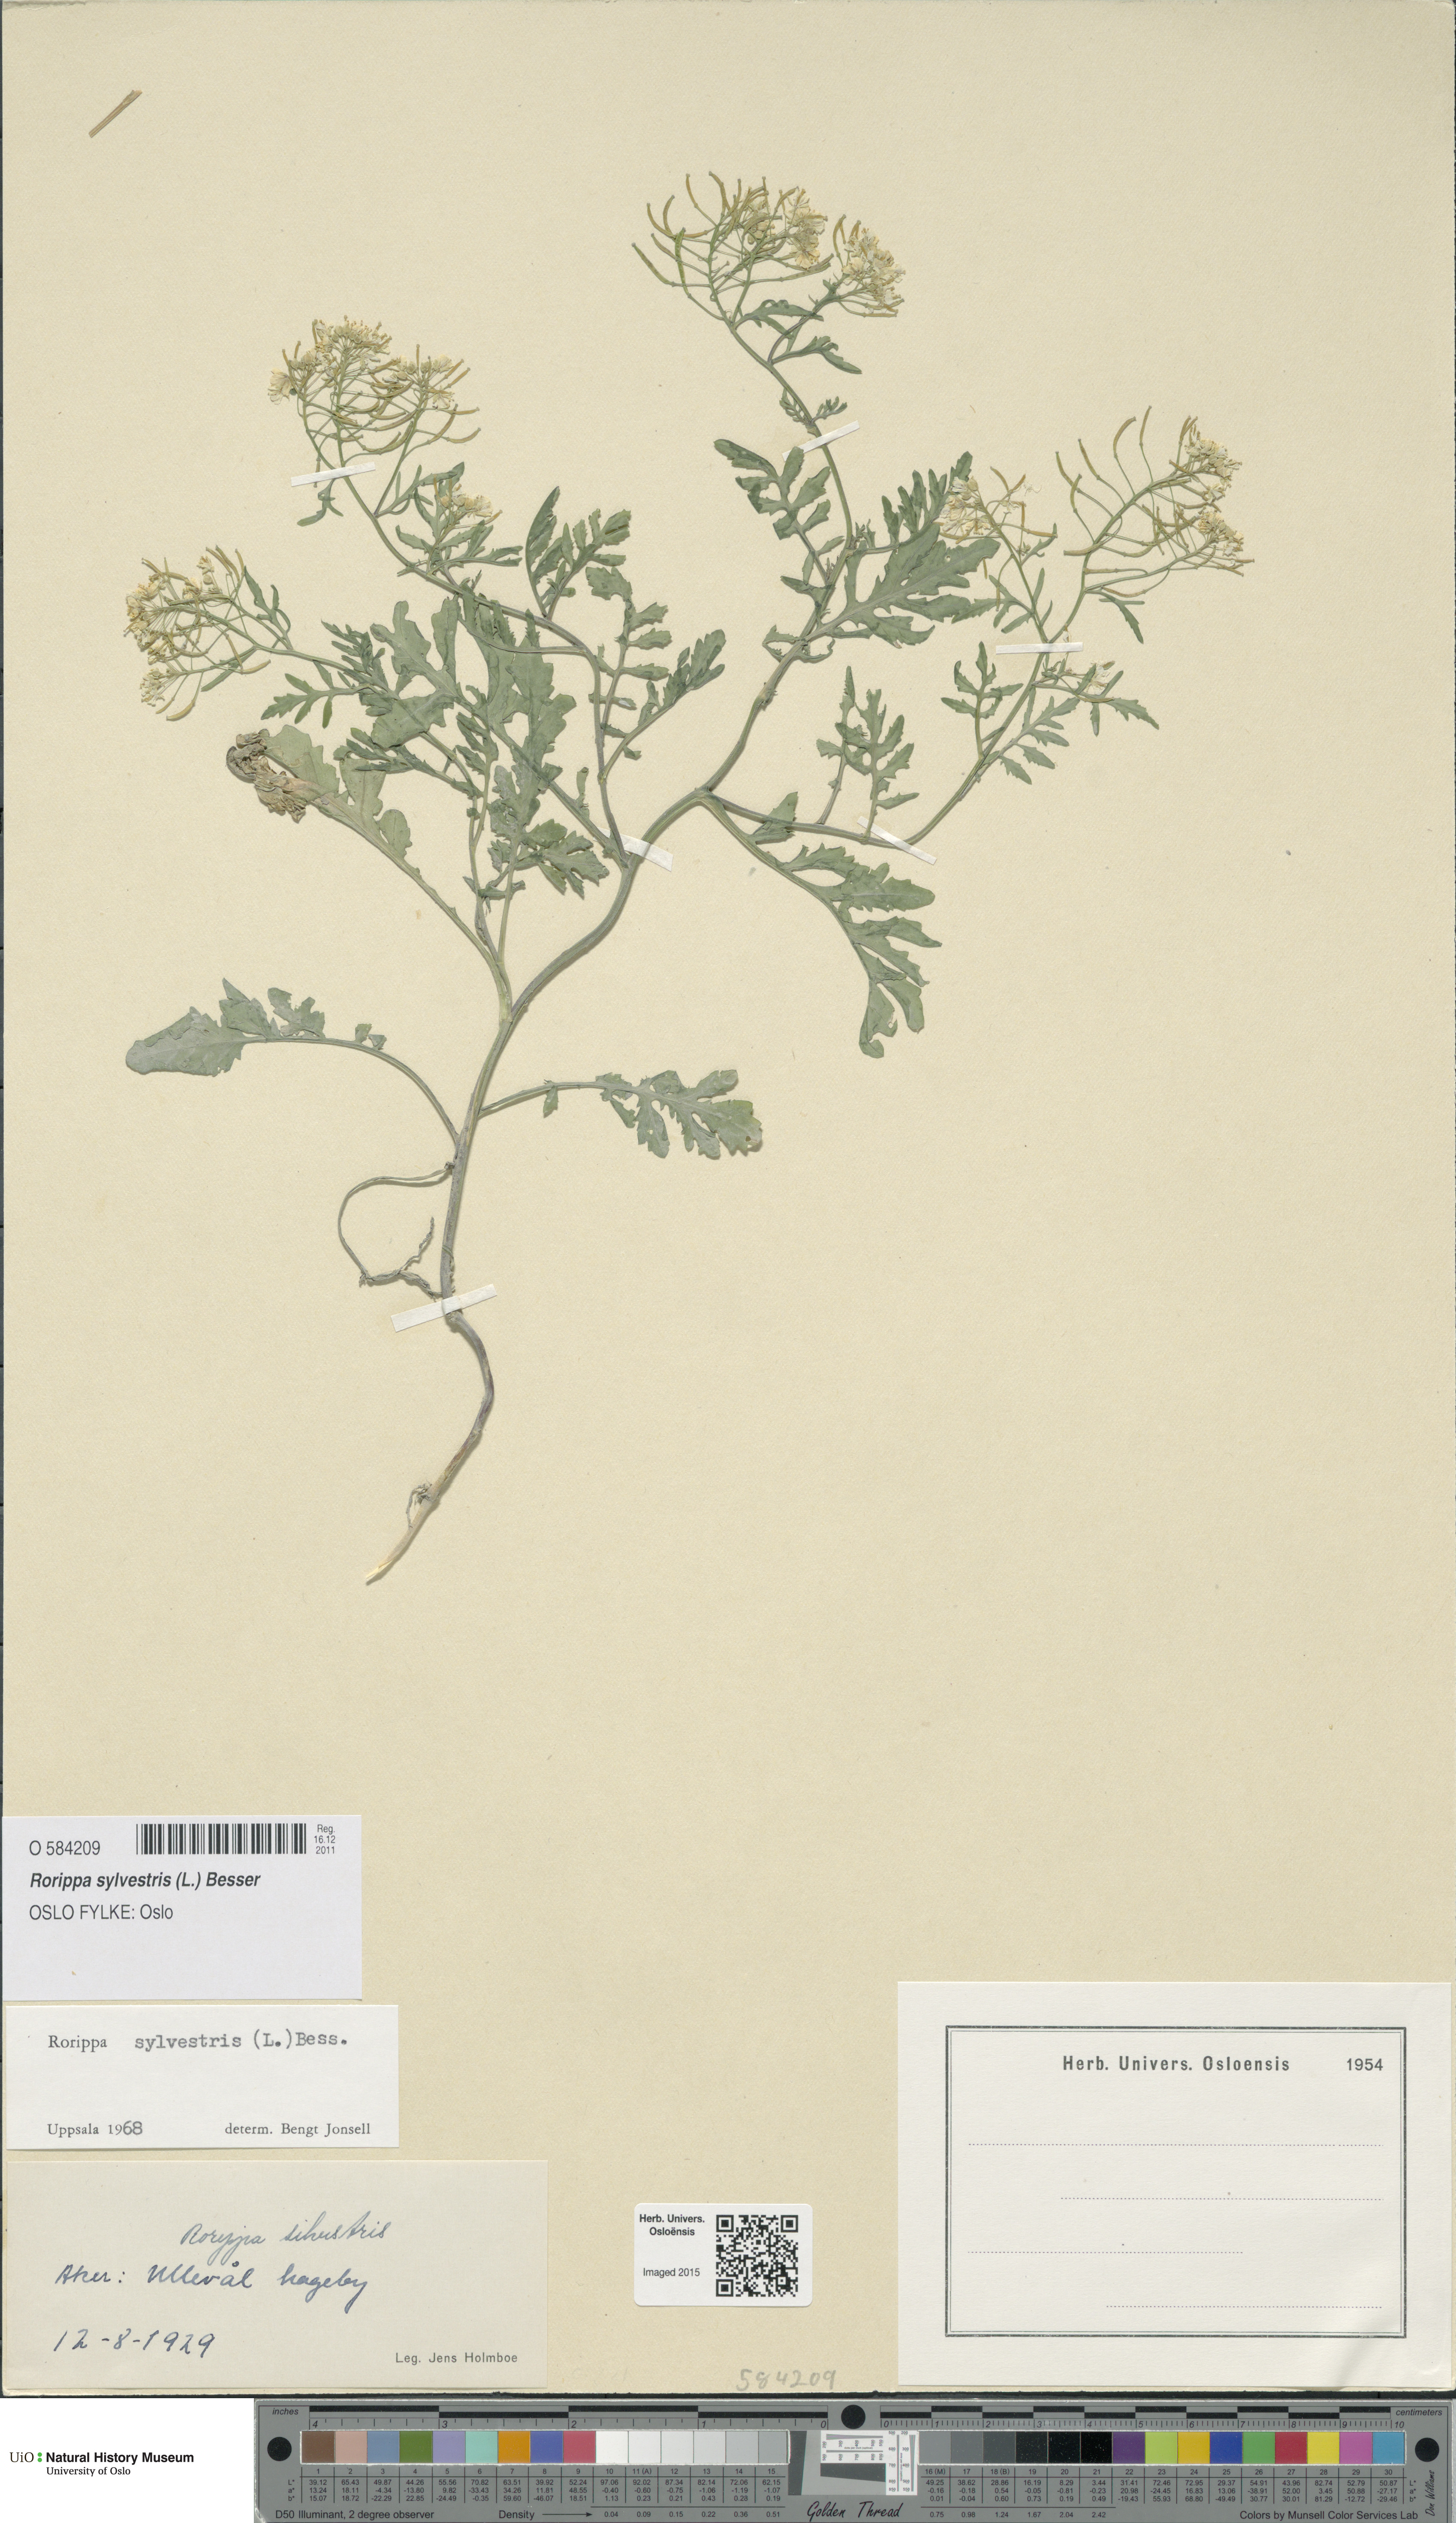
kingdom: Plantae
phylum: Tracheophyta
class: Magnoliopsida
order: Brassicales
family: Brassicaceae
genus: Rorippa
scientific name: Rorippa sylvestris
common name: Creeping yellowcress
